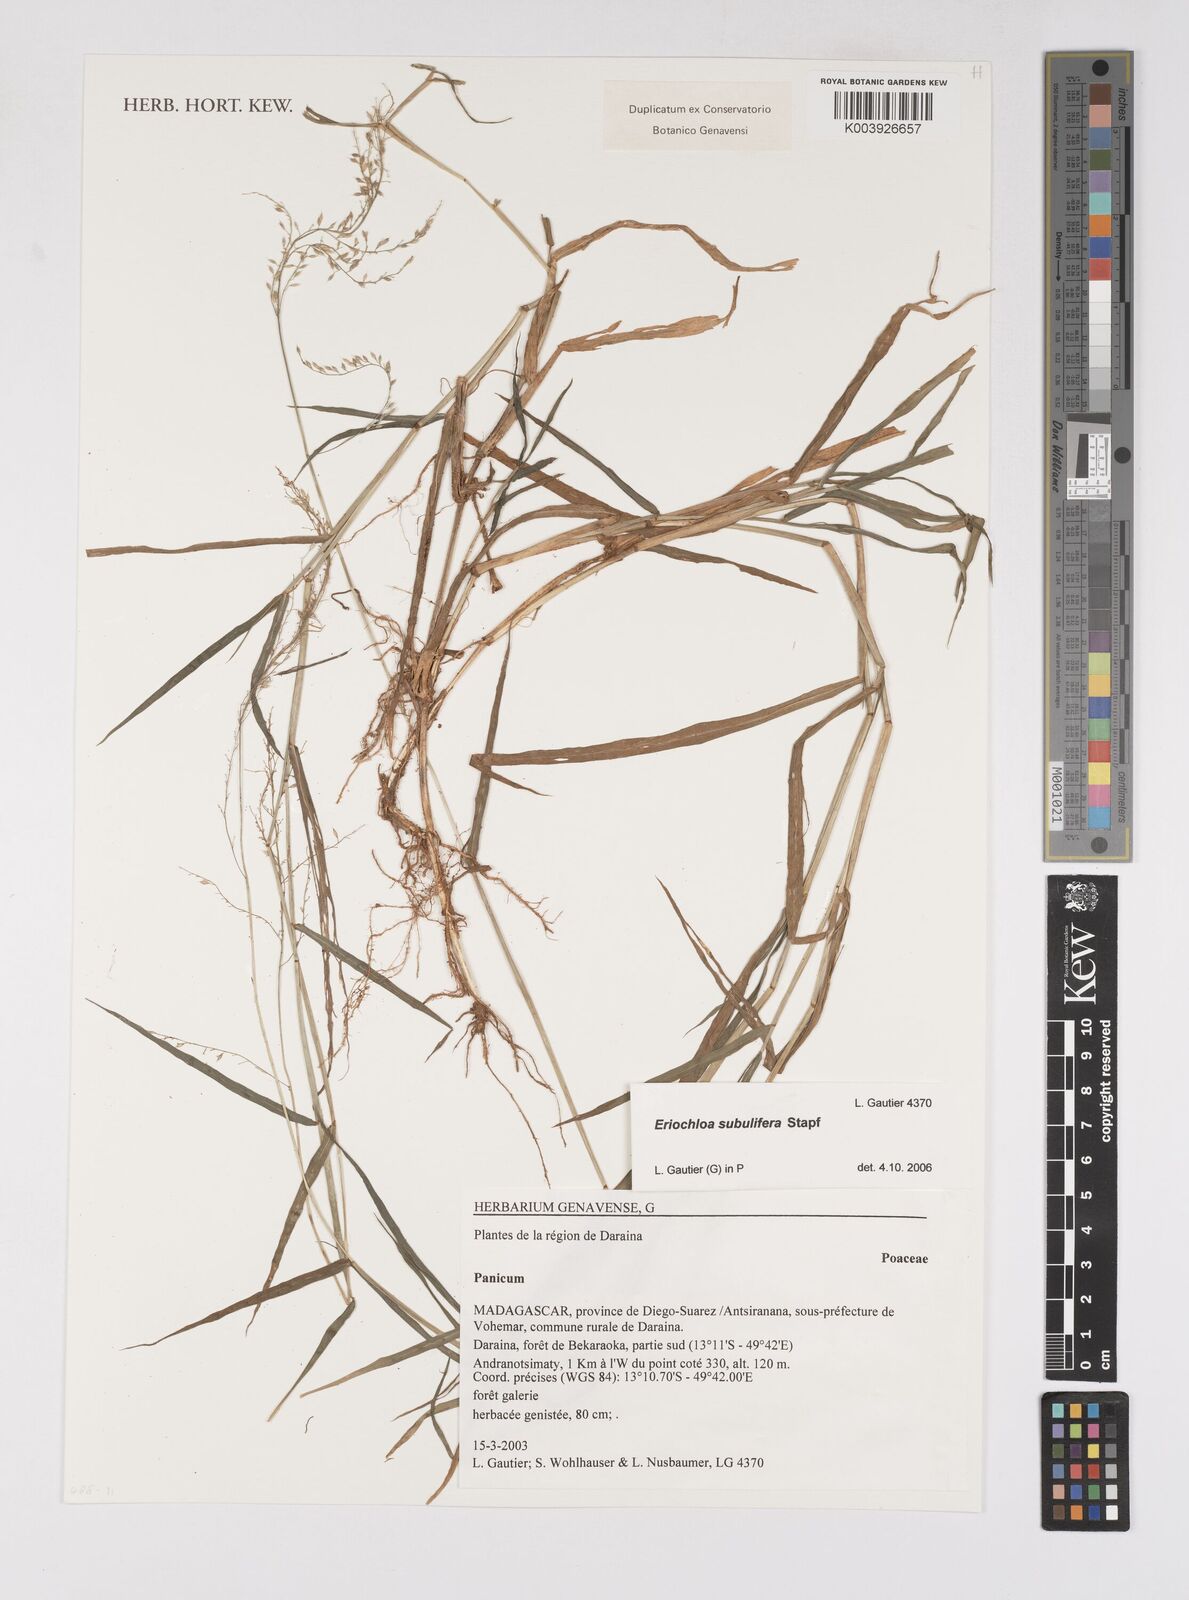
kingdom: Plantae
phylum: Tracheophyta
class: Liliopsida
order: Poales
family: Poaceae
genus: Eriochloa
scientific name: Eriochloa subulifera
